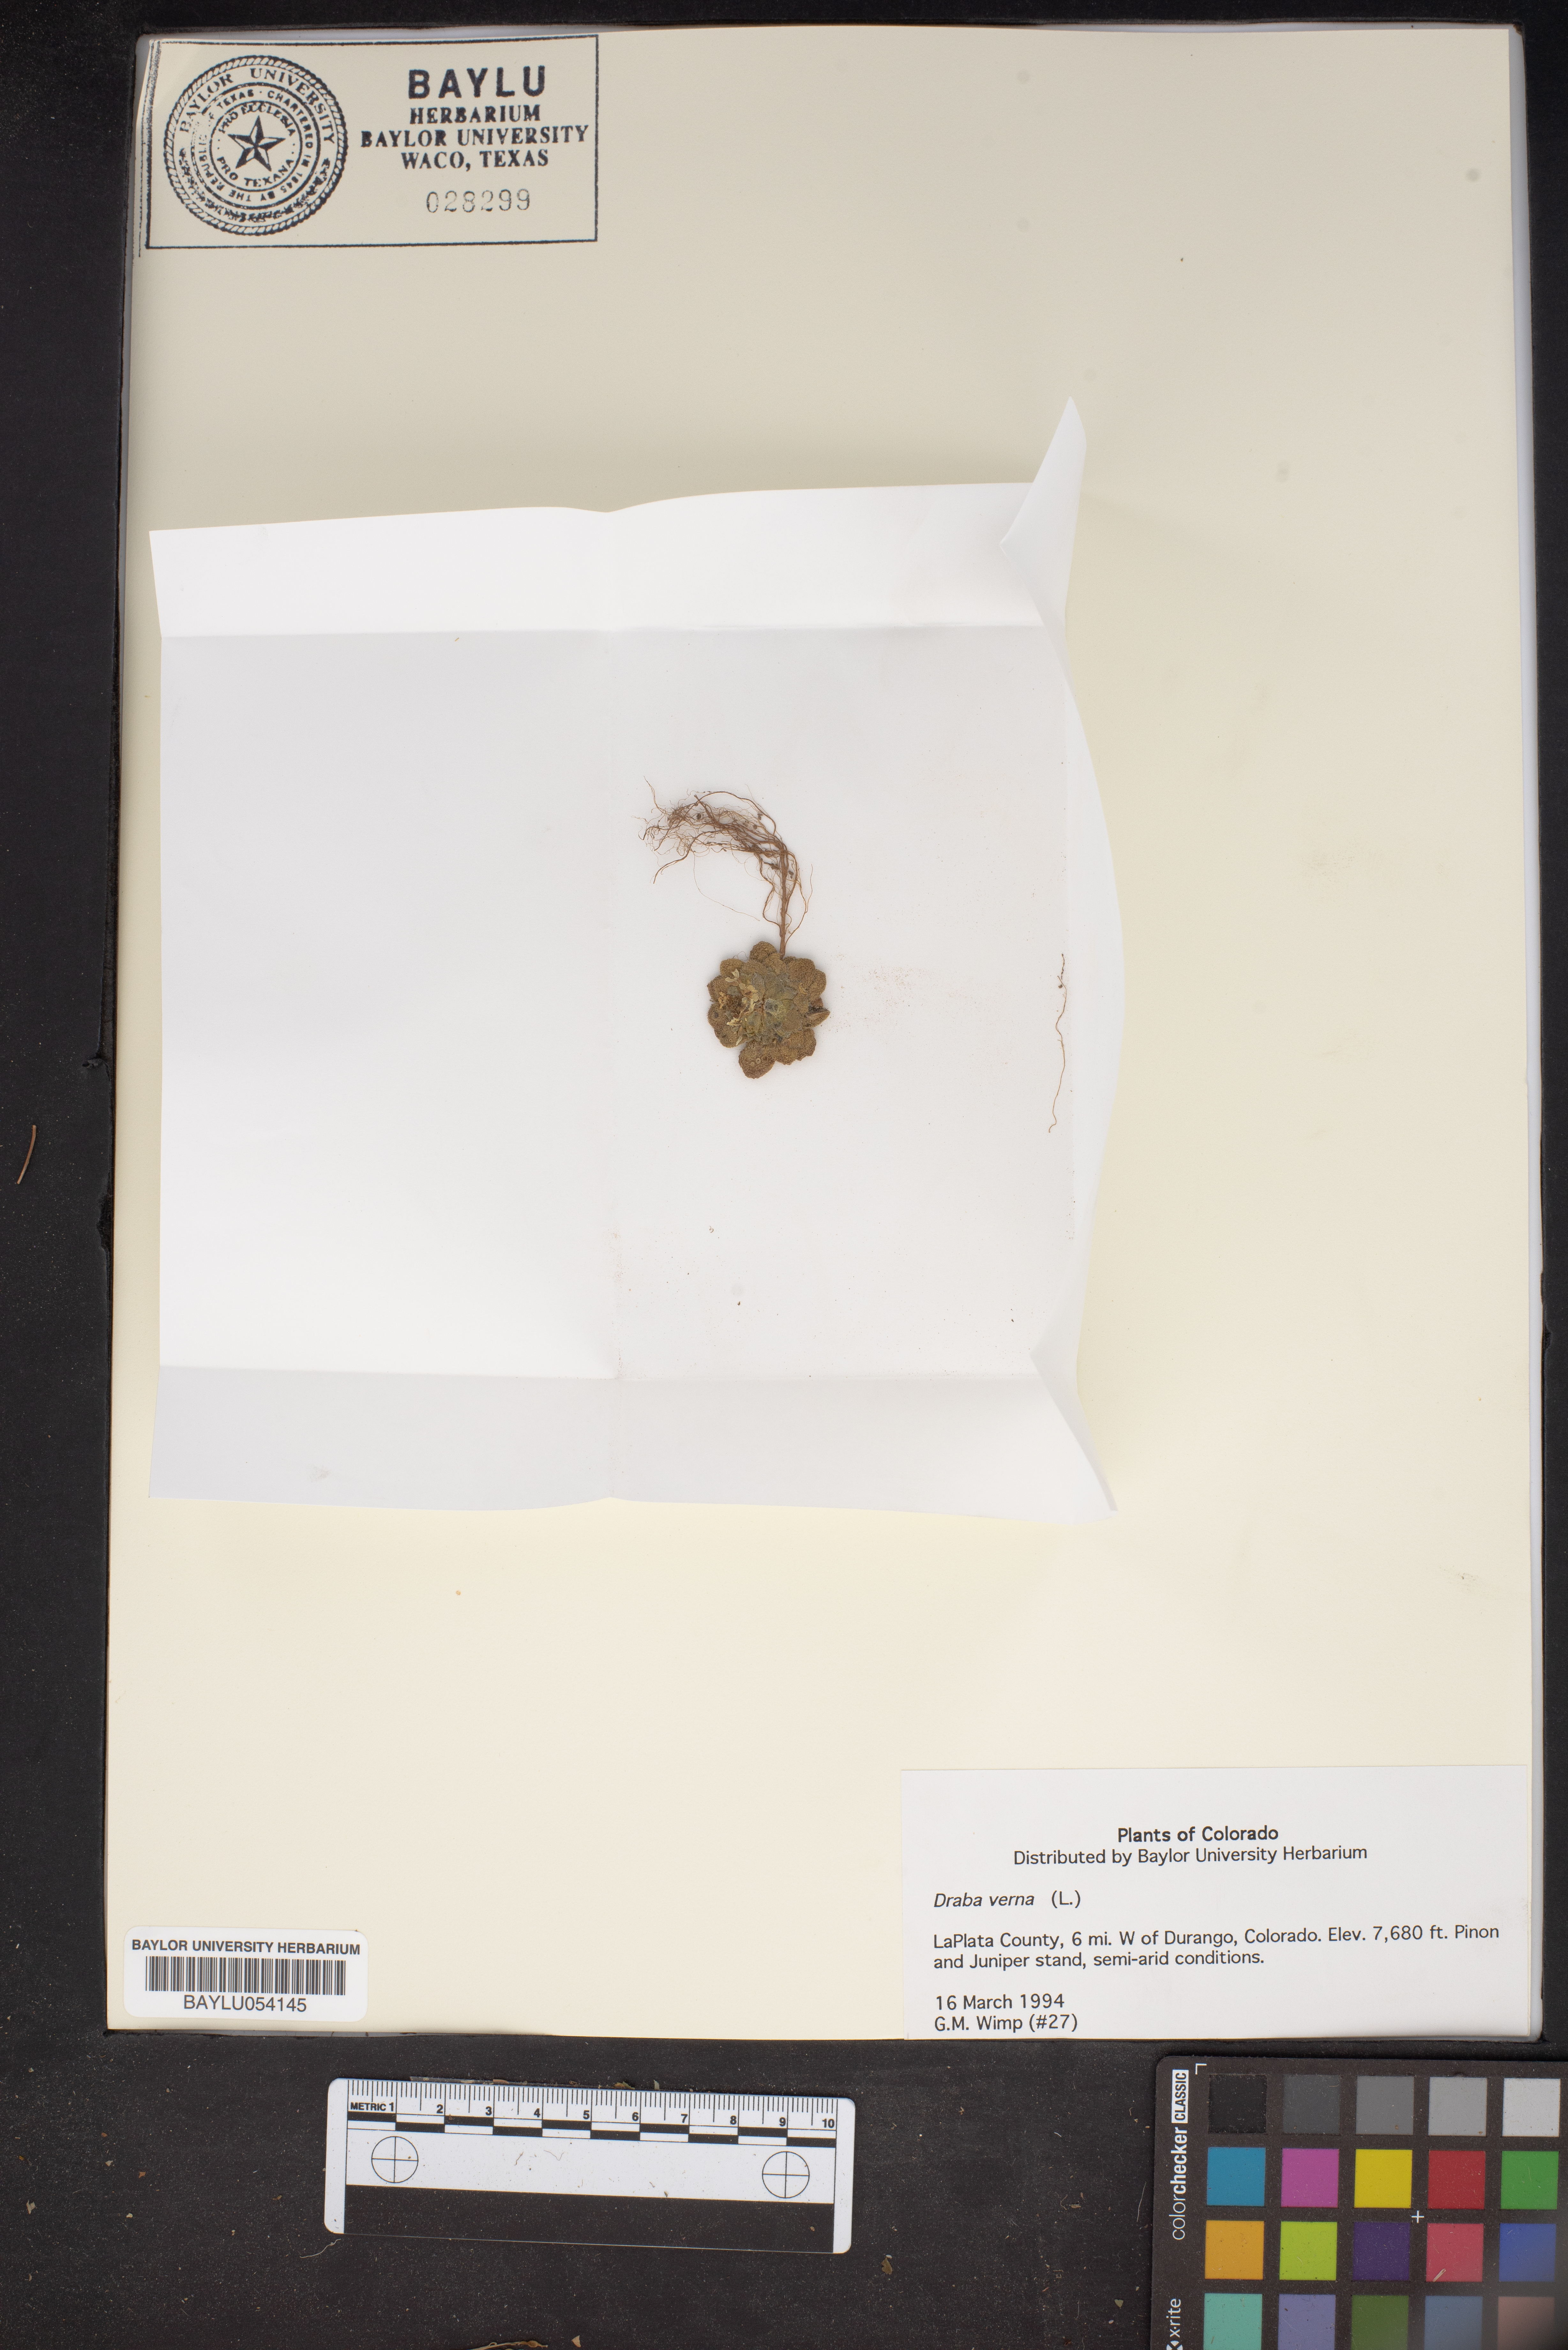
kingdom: Plantae
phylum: Tracheophyta
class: Magnoliopsida
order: Brassicales
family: Brassicaceae
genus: Draba
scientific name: Draba verna
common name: Spring draba
